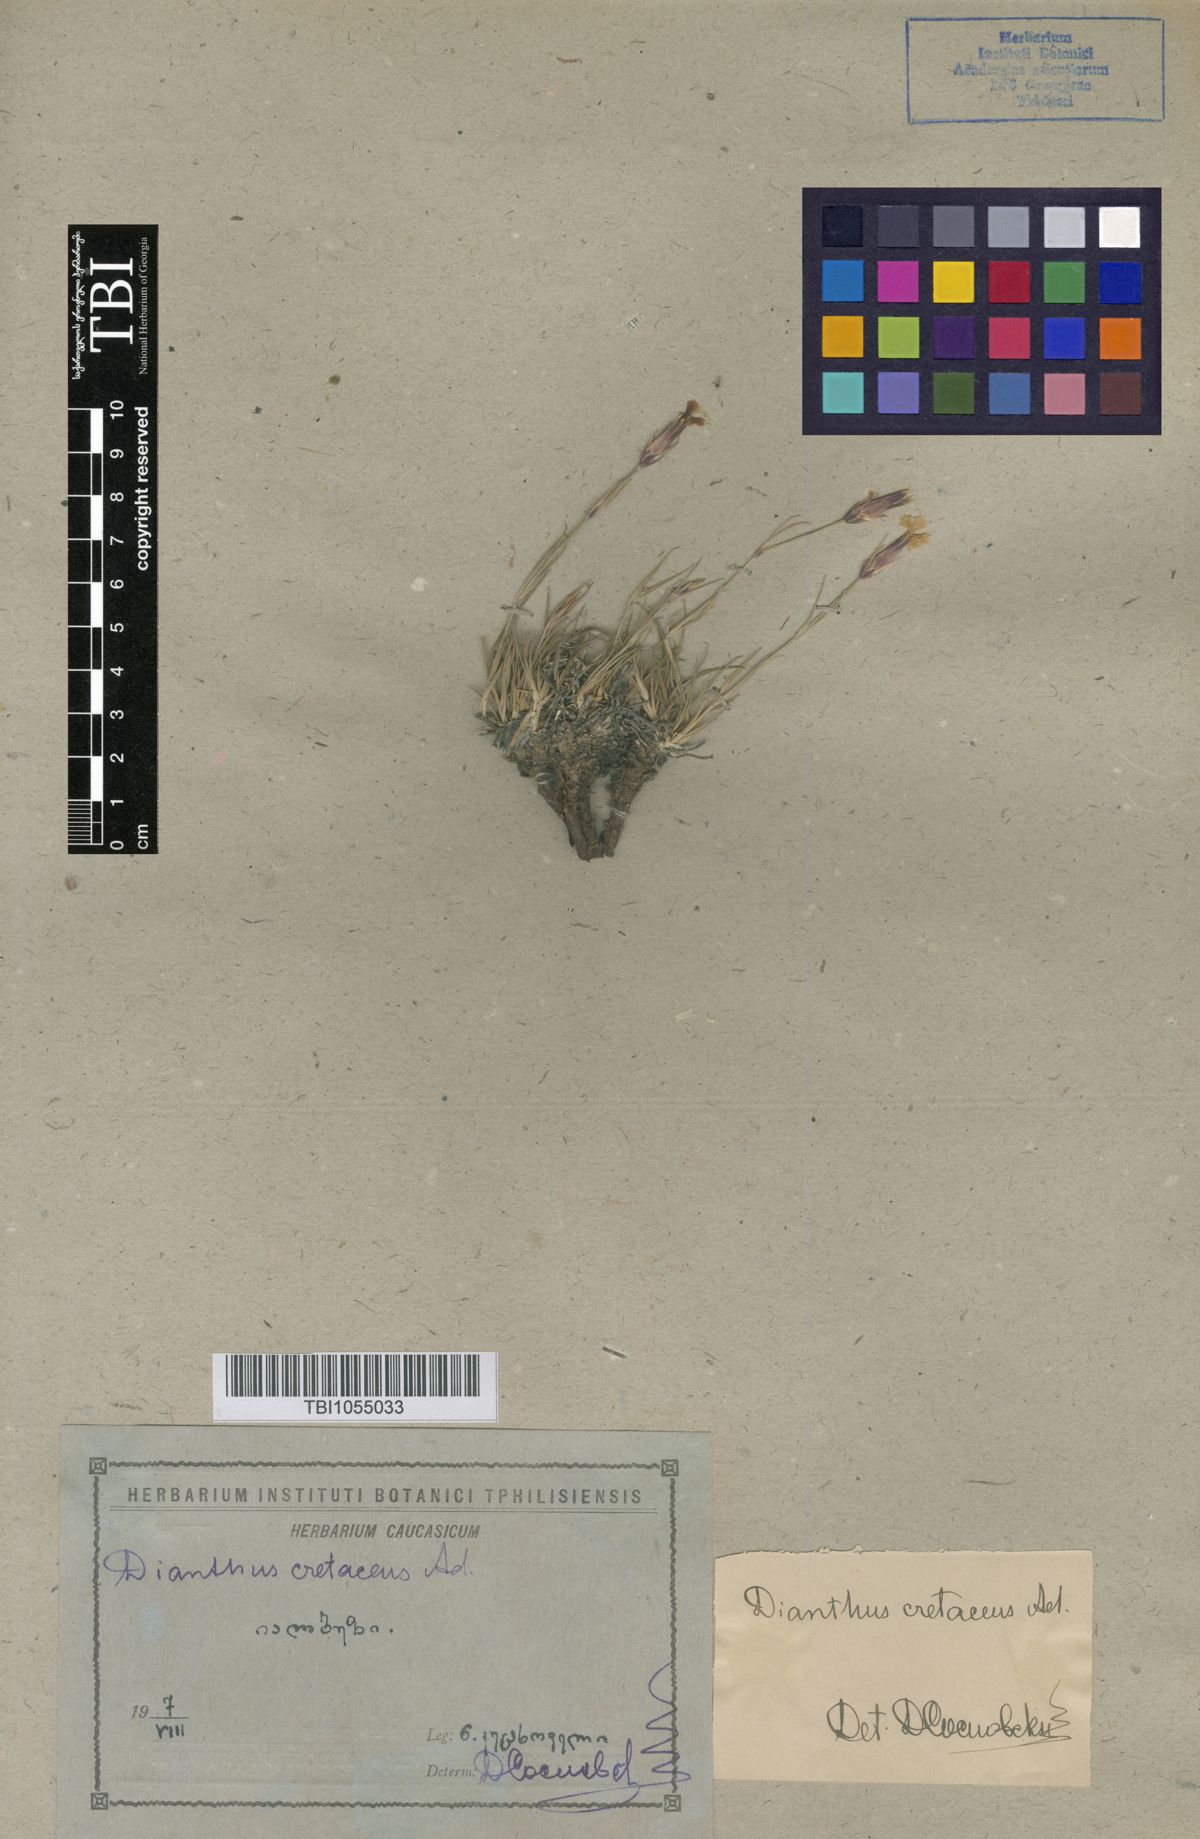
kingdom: Plantae
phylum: Tracheophyta
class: Magnoliopsida
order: Caryophyllales
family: Caryophyllaceae
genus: Dianthus
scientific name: Dianthus cretaceus
